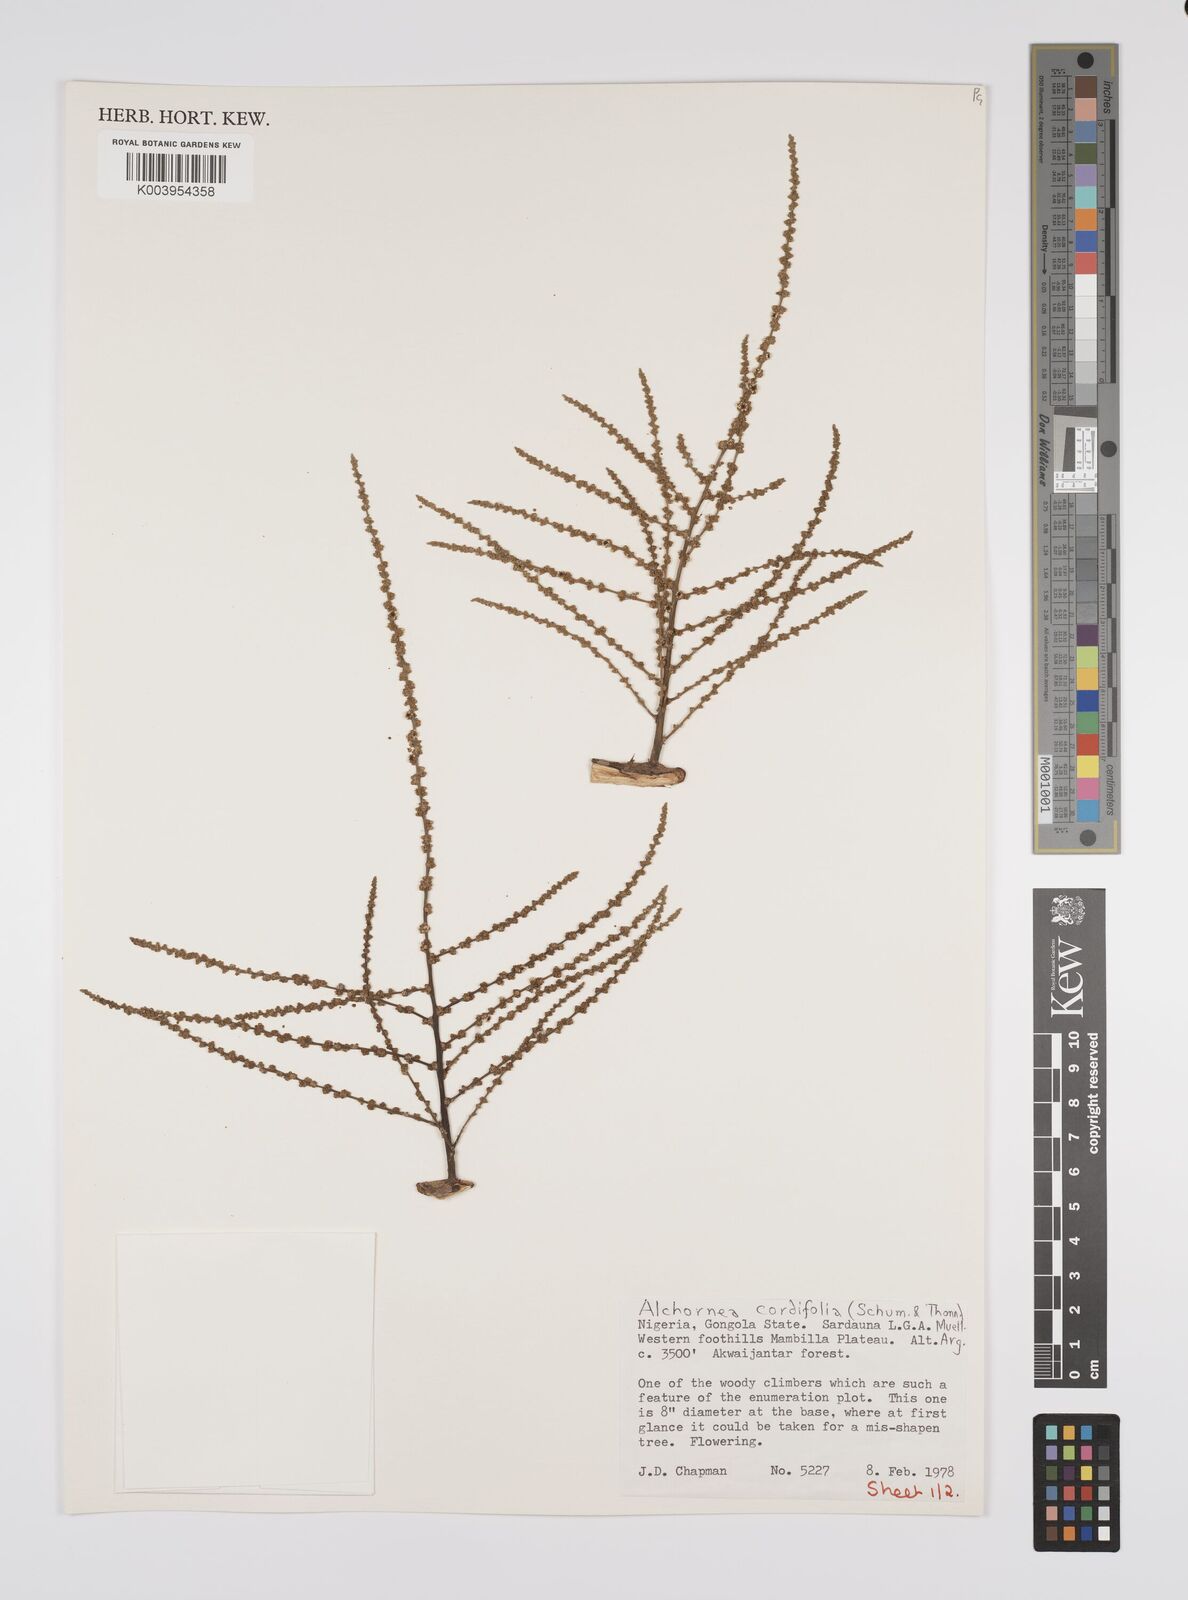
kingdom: Plantae
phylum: Tracheophyta
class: Magnoliopsida
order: Malpighiales
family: Euphorbiaceae
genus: Alchornea
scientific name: Alchornea cordifolia
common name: Christmasbush
